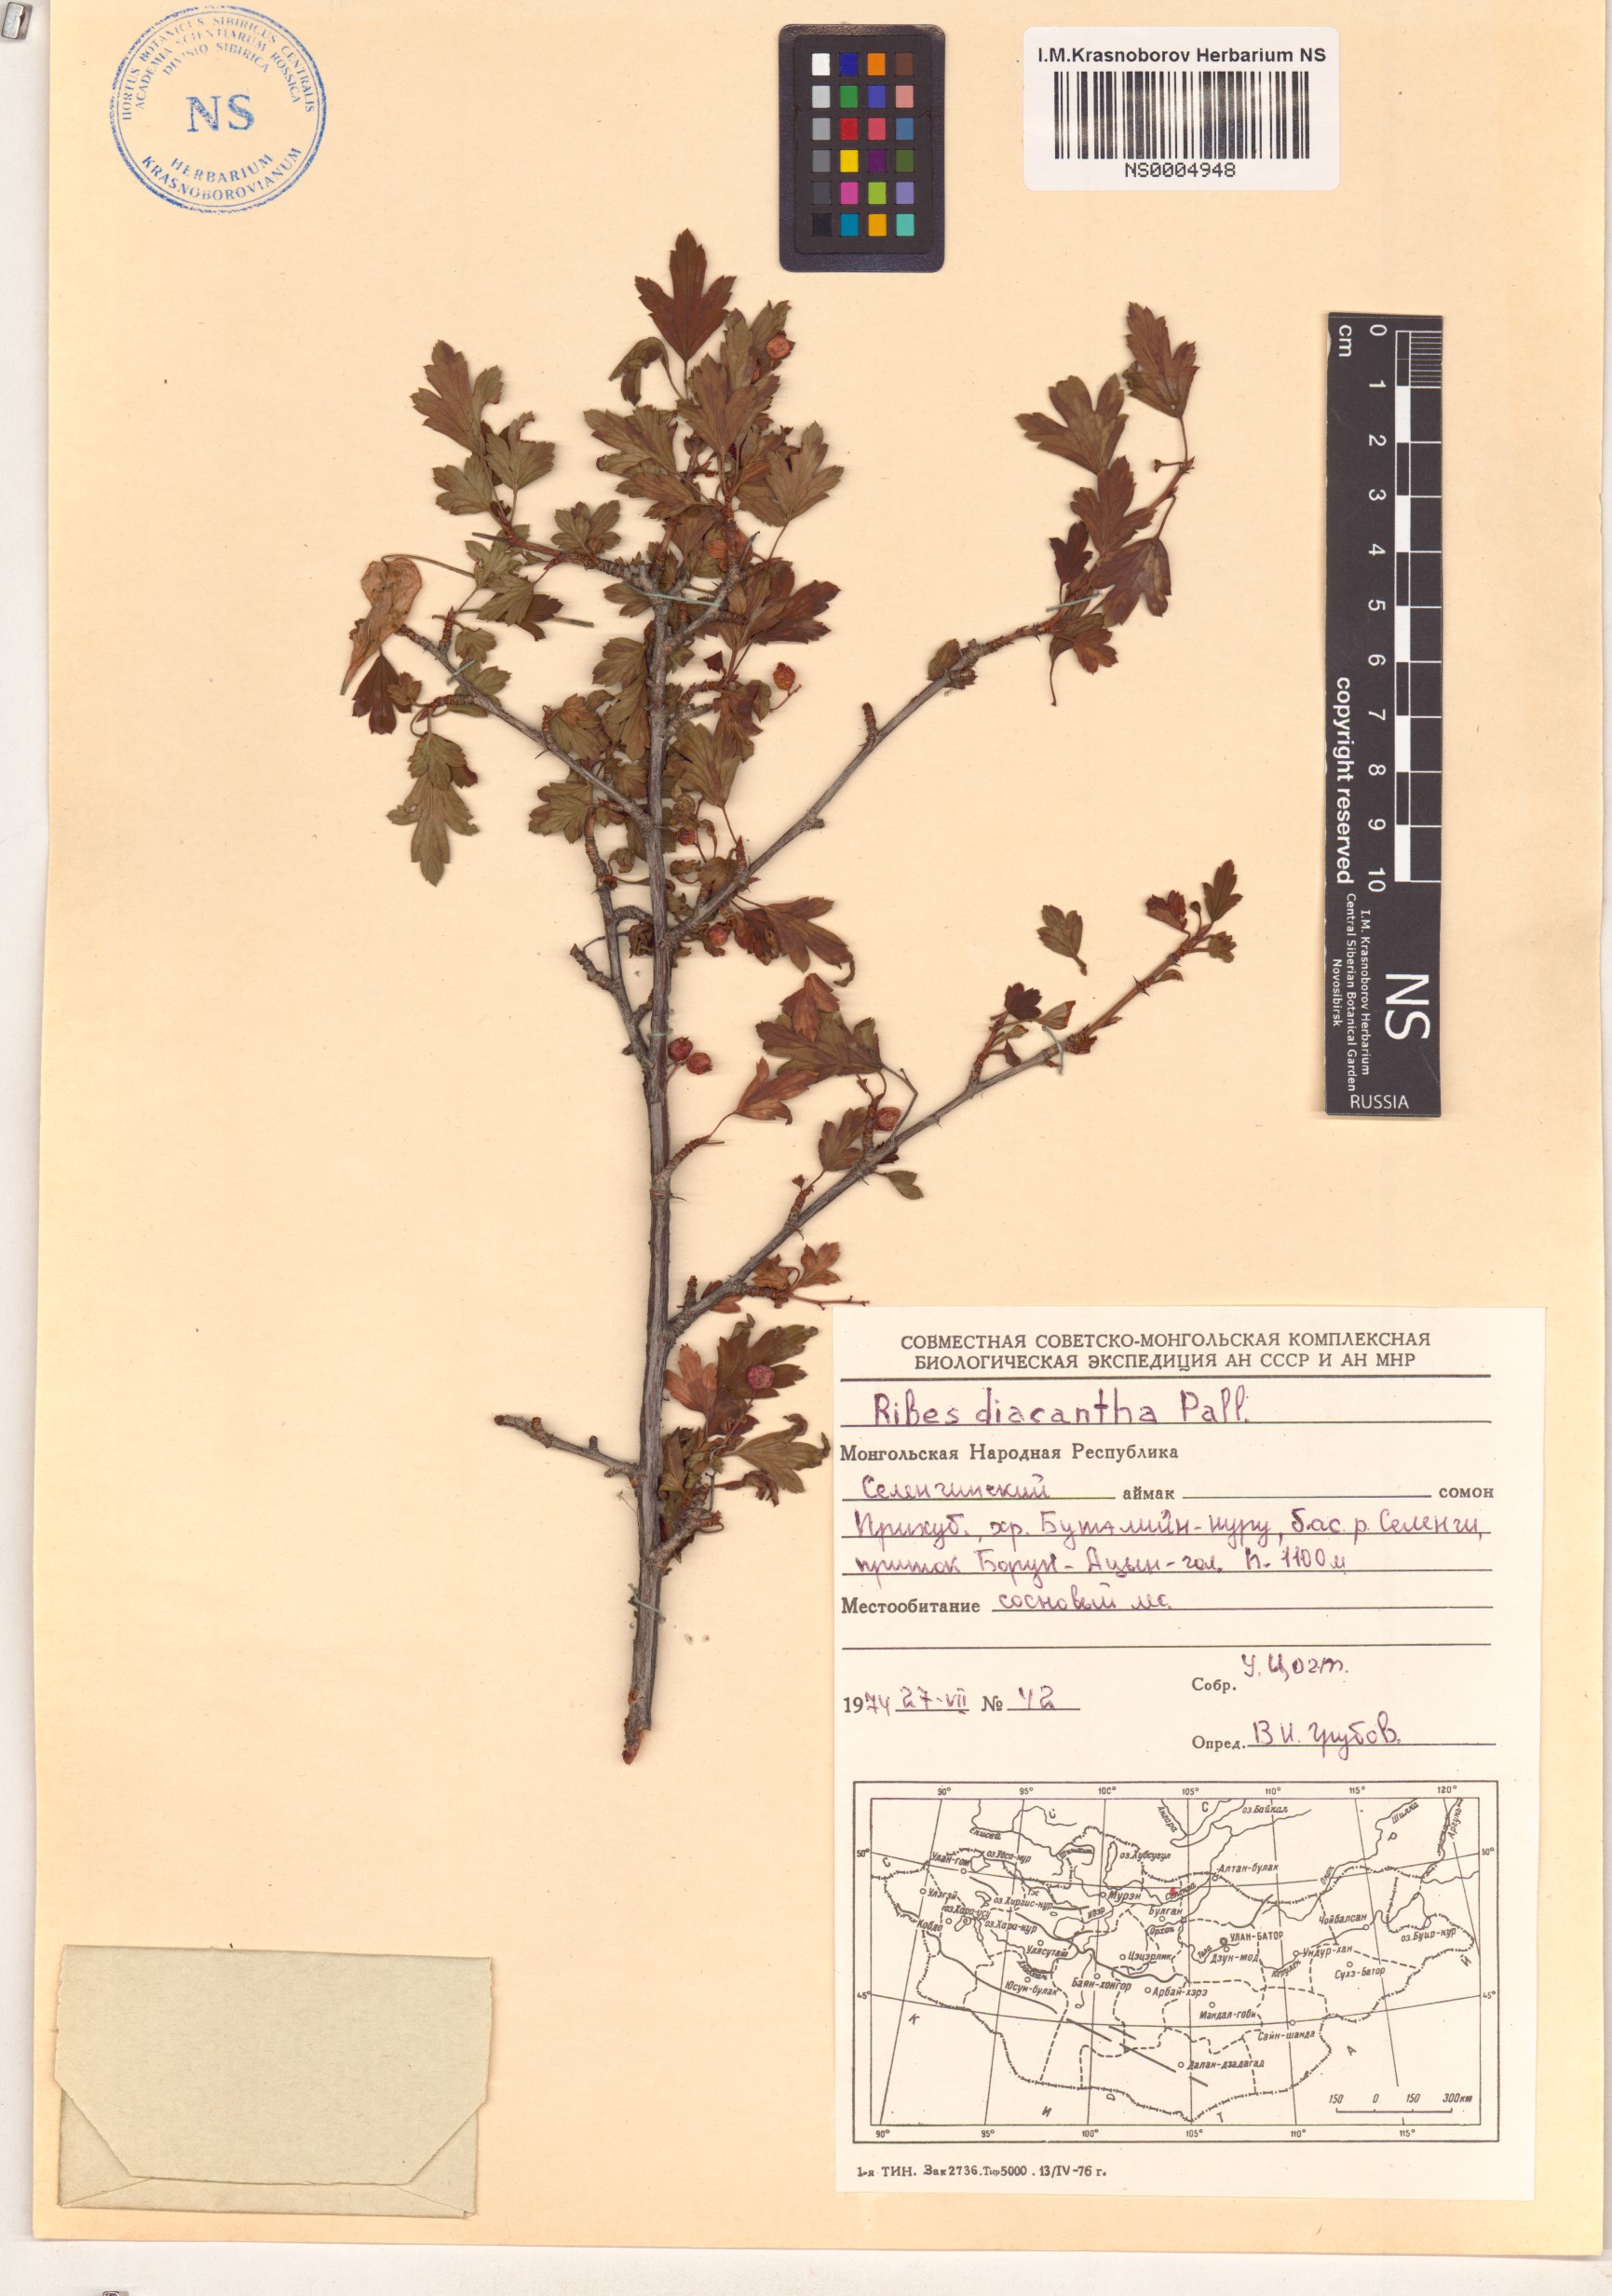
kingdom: Plantae
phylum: Tracheophyta
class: Magnoliopsida
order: Saxifragales
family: Grossulariaceae
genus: Ribes
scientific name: Ribes diacanthum
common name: Siberian currant
